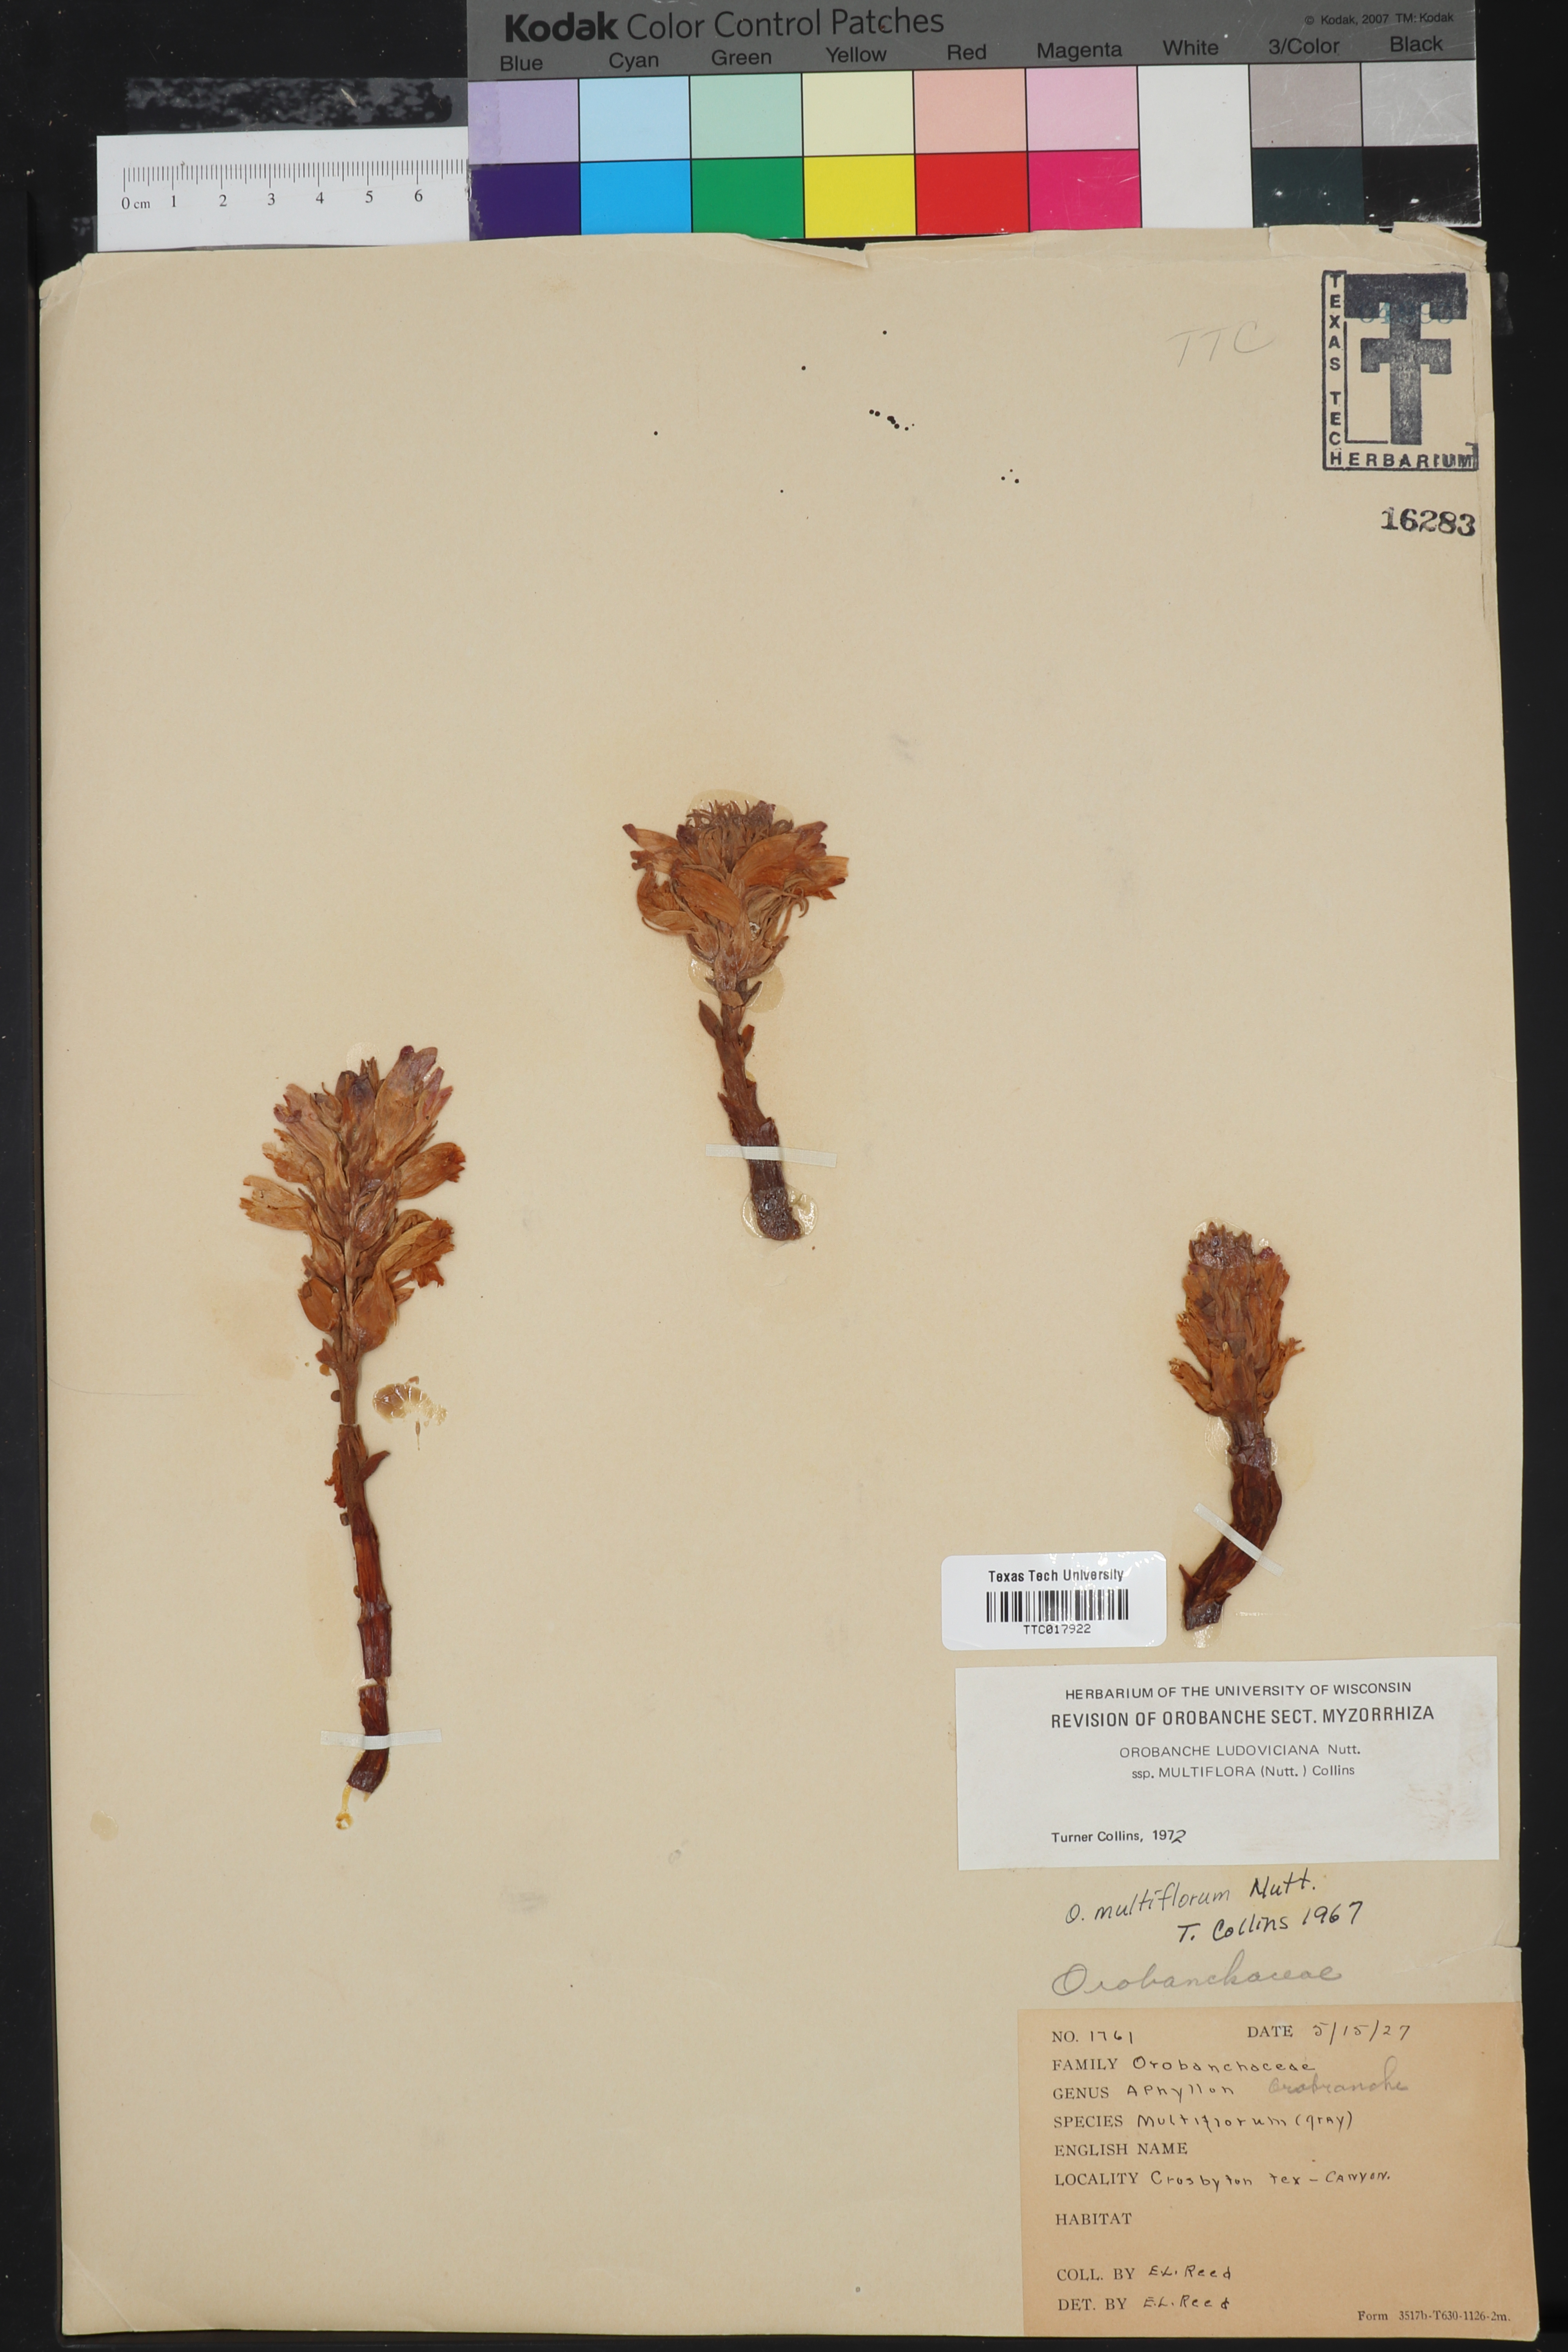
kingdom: Plantae
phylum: Tracheophyta
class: Magnoliopsida
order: Lamiales
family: Orobanchaceae
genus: Aphyllon
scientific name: Aphyllon multiflorum
